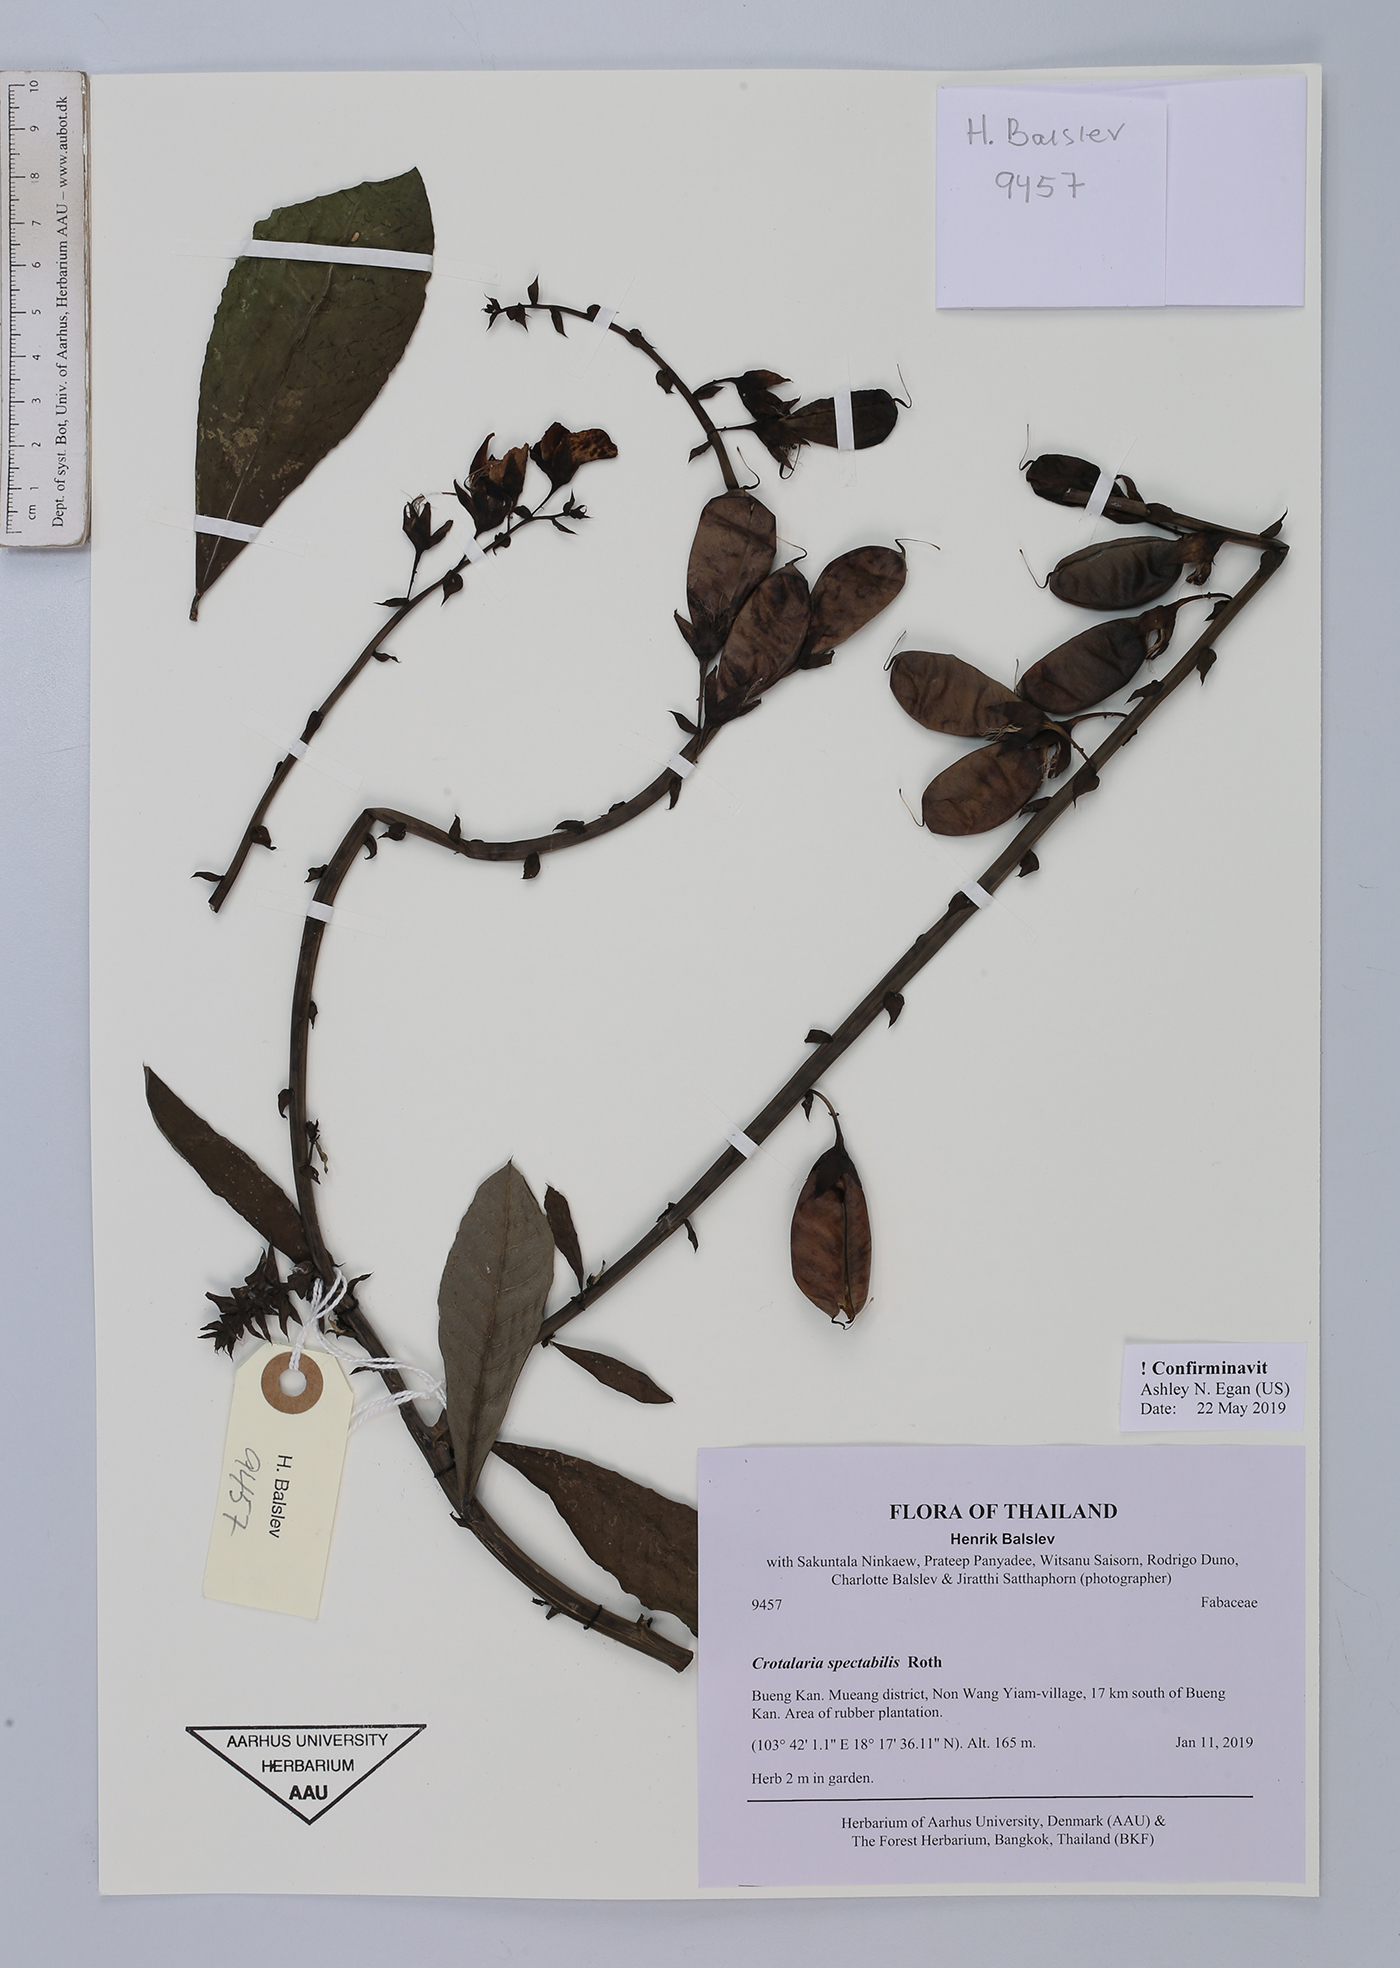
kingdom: Plantae
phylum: Tracheophyta
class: Magnoliopsida
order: Fabales
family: Fabaceae
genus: Crotalaria
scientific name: Crotalaria spectabilis
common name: Showy rattlebox
